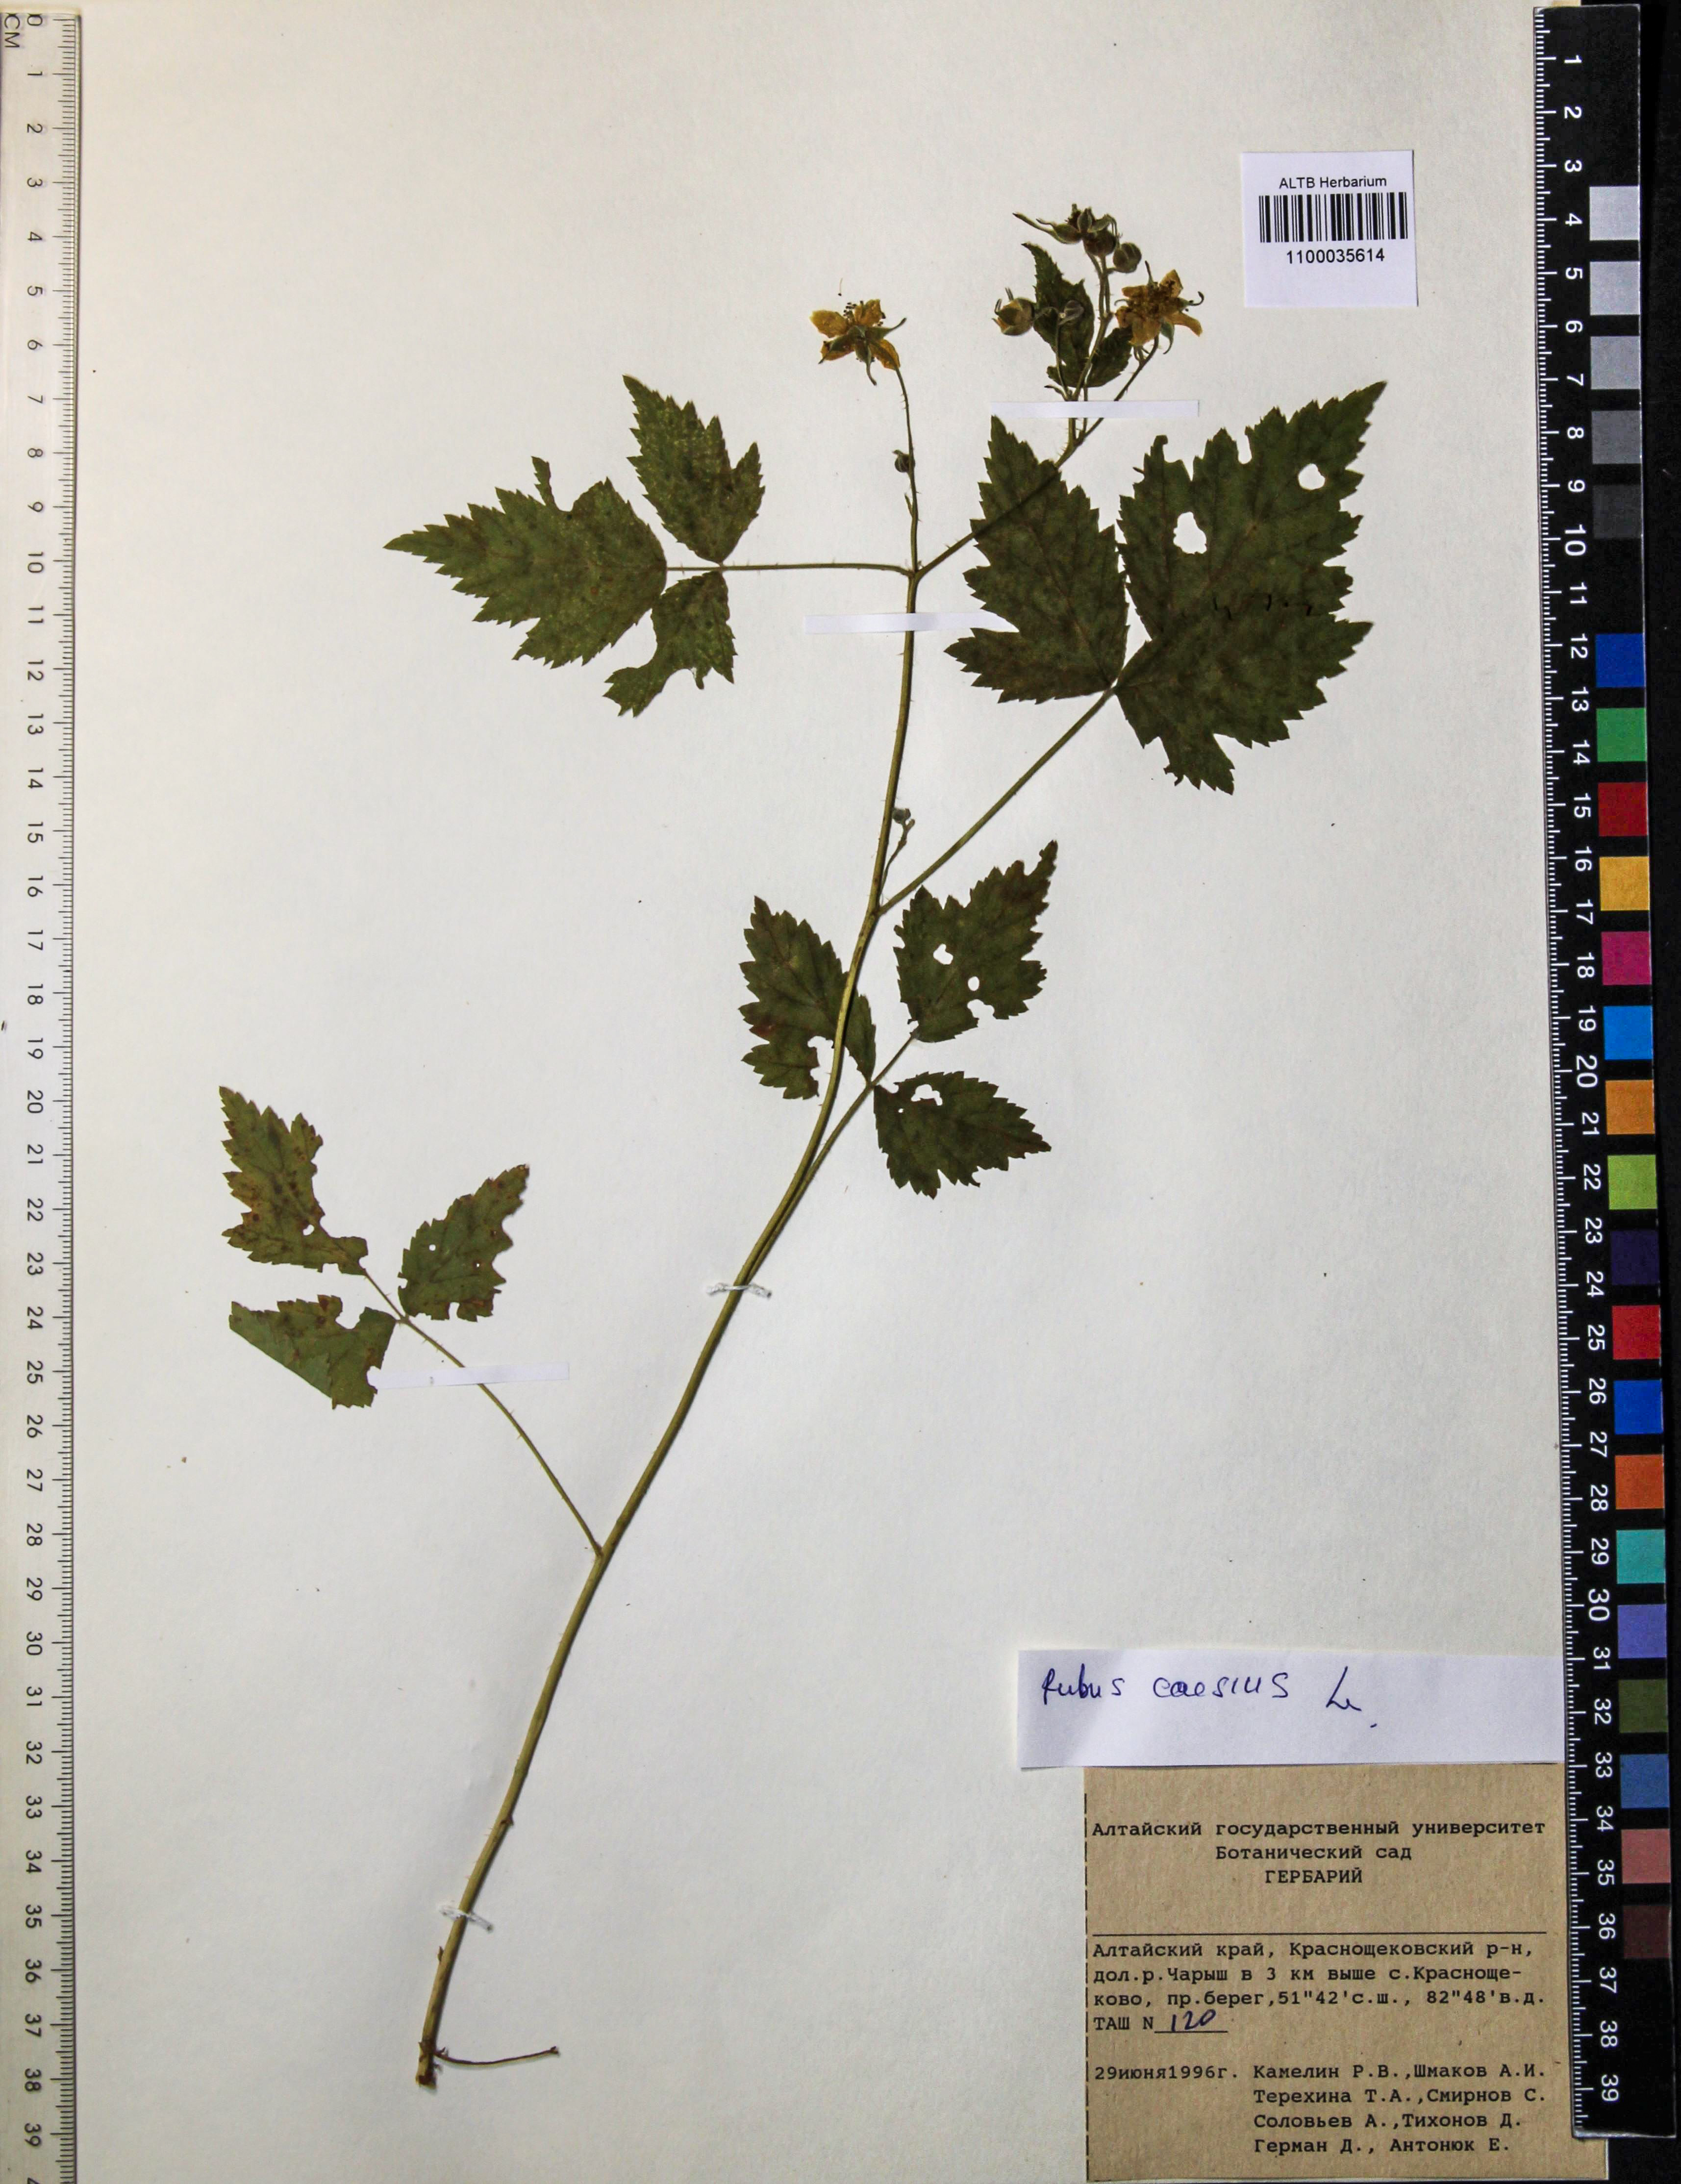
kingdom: Plantae
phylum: Tracheophyta
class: Magnoliopsida
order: Rosales
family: Rosaceae
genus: Rubus
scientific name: Rubus caesius
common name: Dewberry
